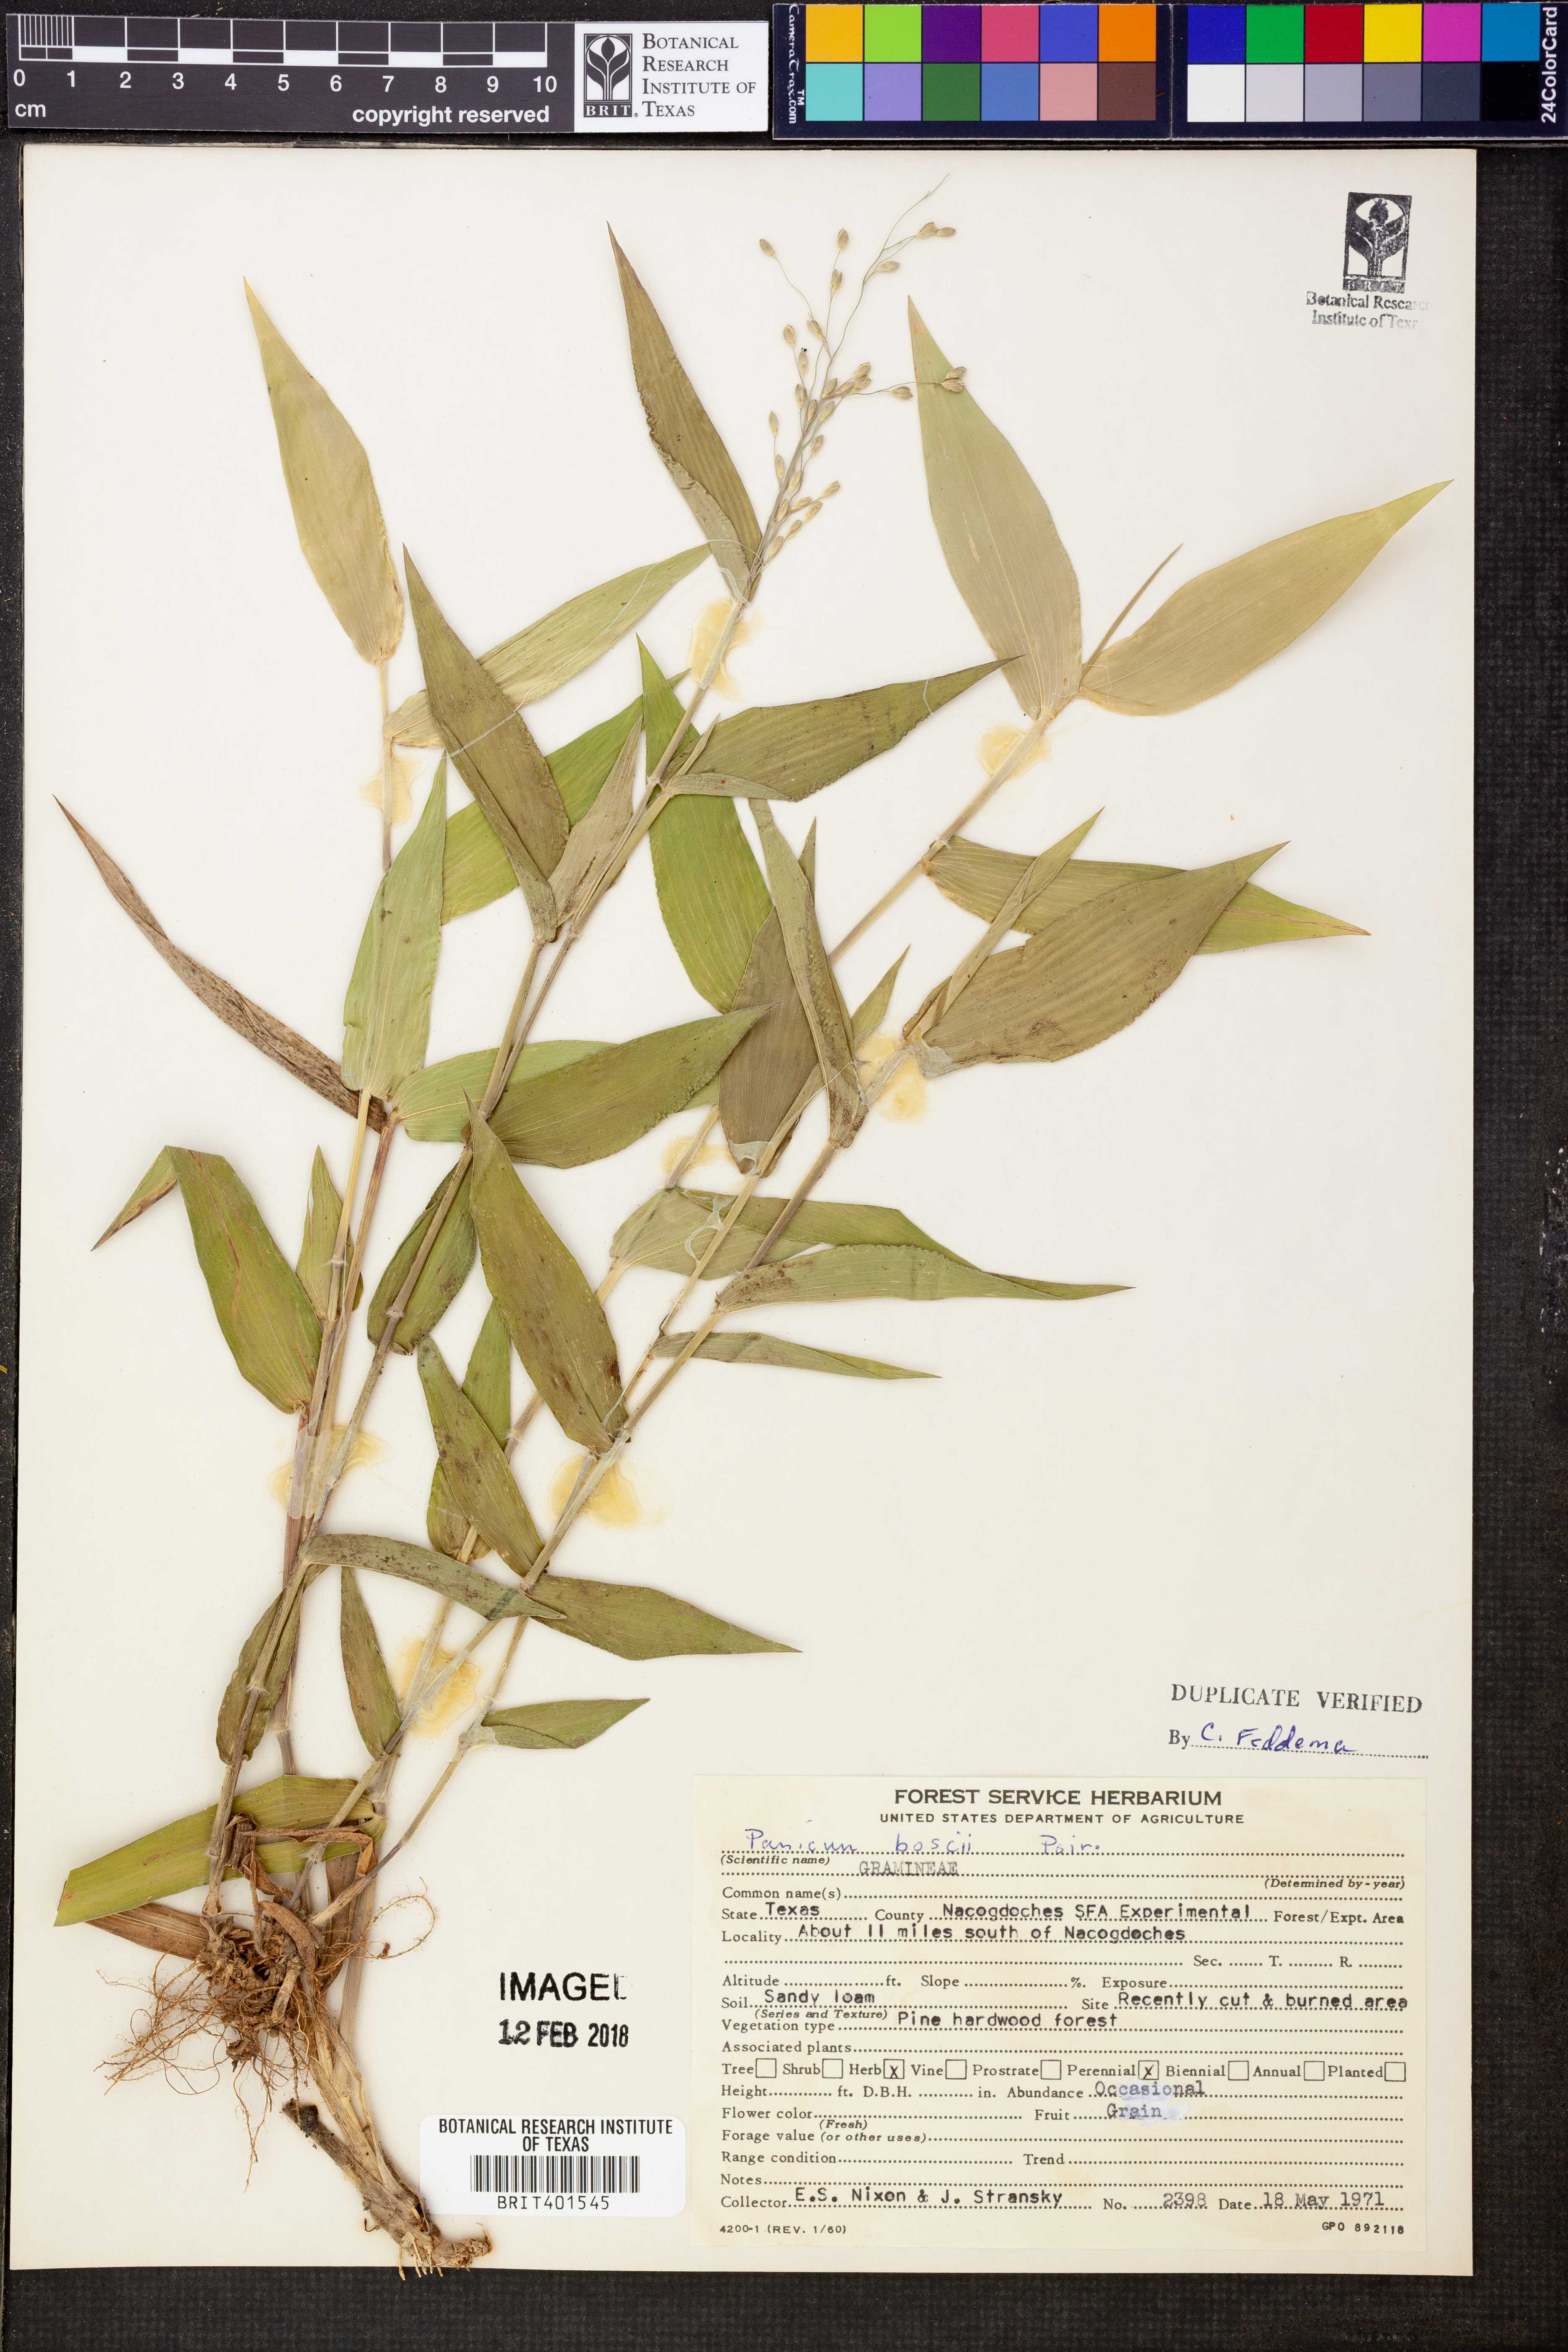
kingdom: Plantae
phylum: Tracheophyta
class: Liliopsida
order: Poales
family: Poaceae
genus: Dichanthelium
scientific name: Dichanthelium boscii
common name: Bosc's panic grass
